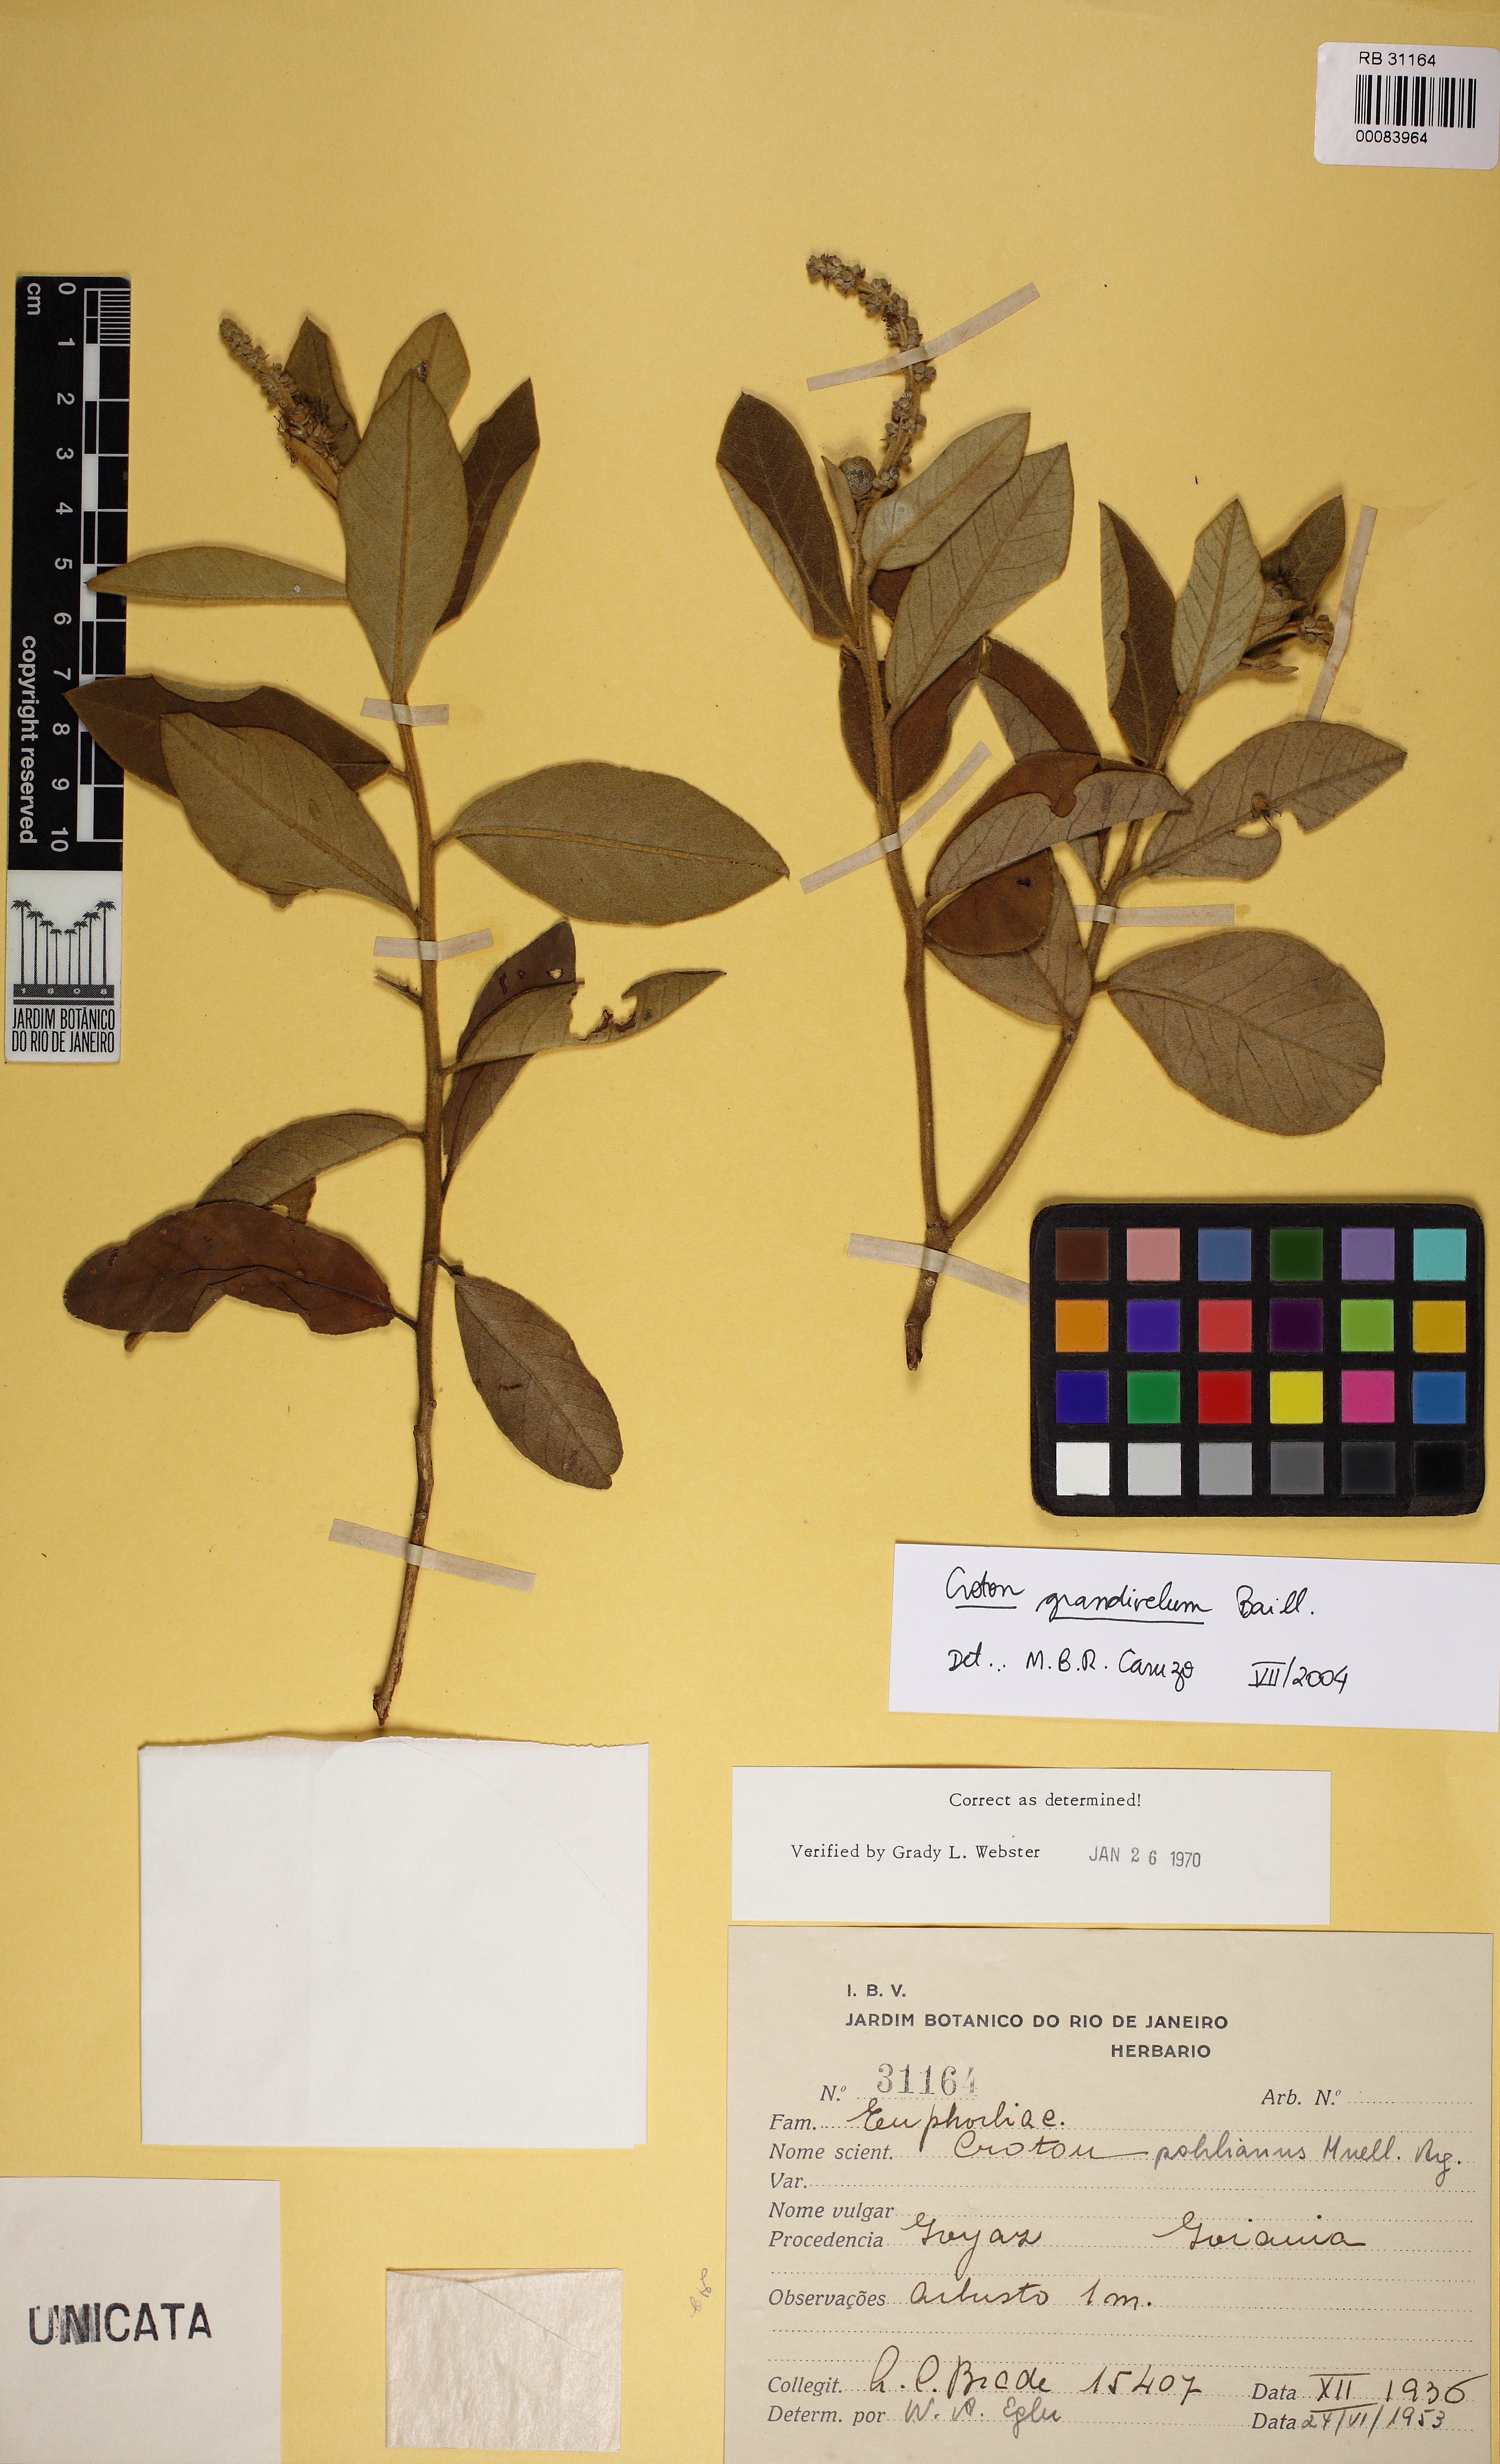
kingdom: Plantae
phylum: Tracheophyta
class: Magnoliopsida
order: Malpighiales
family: Euphorbiaceae
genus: Croton
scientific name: Croton grandivelum
